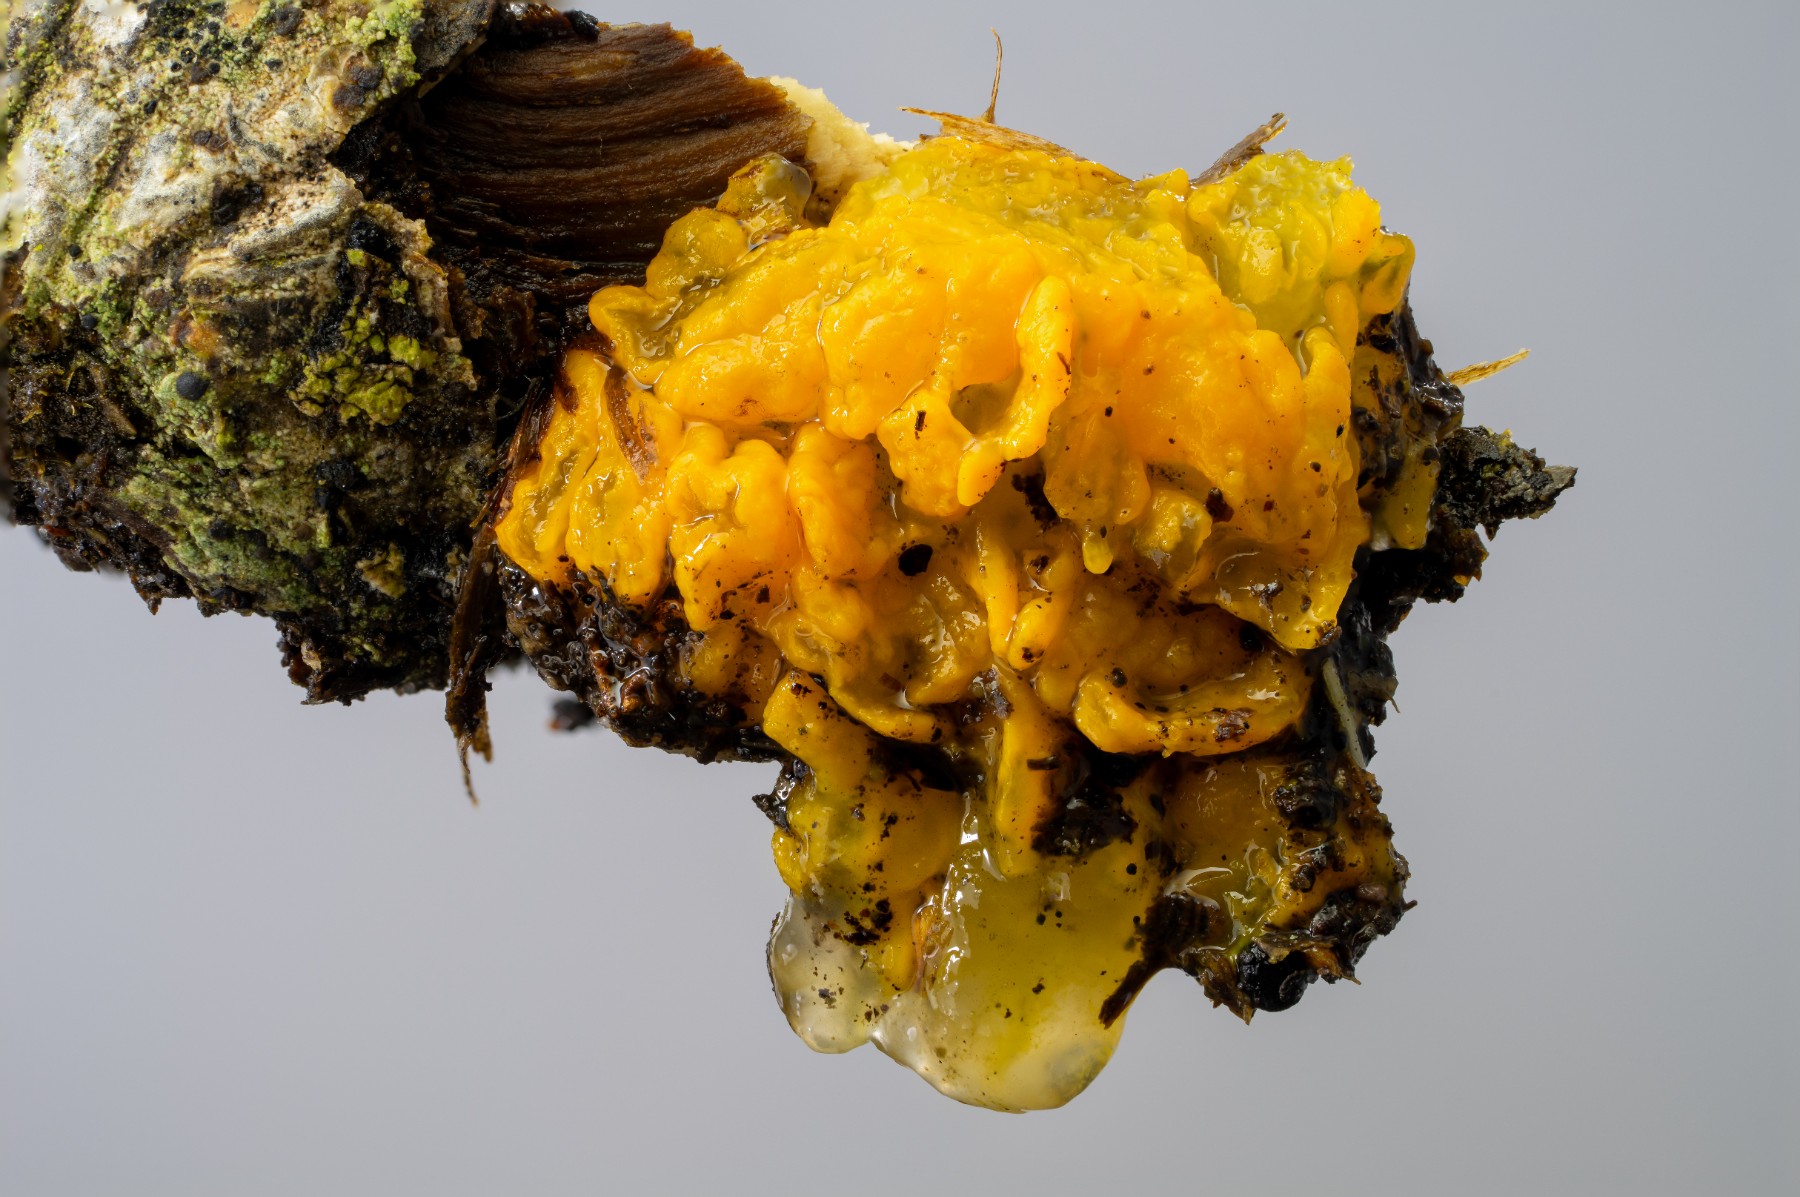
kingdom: Fungi
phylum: Basidiomycota
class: Tremellomycetes
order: Tremellales
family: Tremellaceae
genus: Tremella
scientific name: Tremella mesenterica
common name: gul bævresvamp
